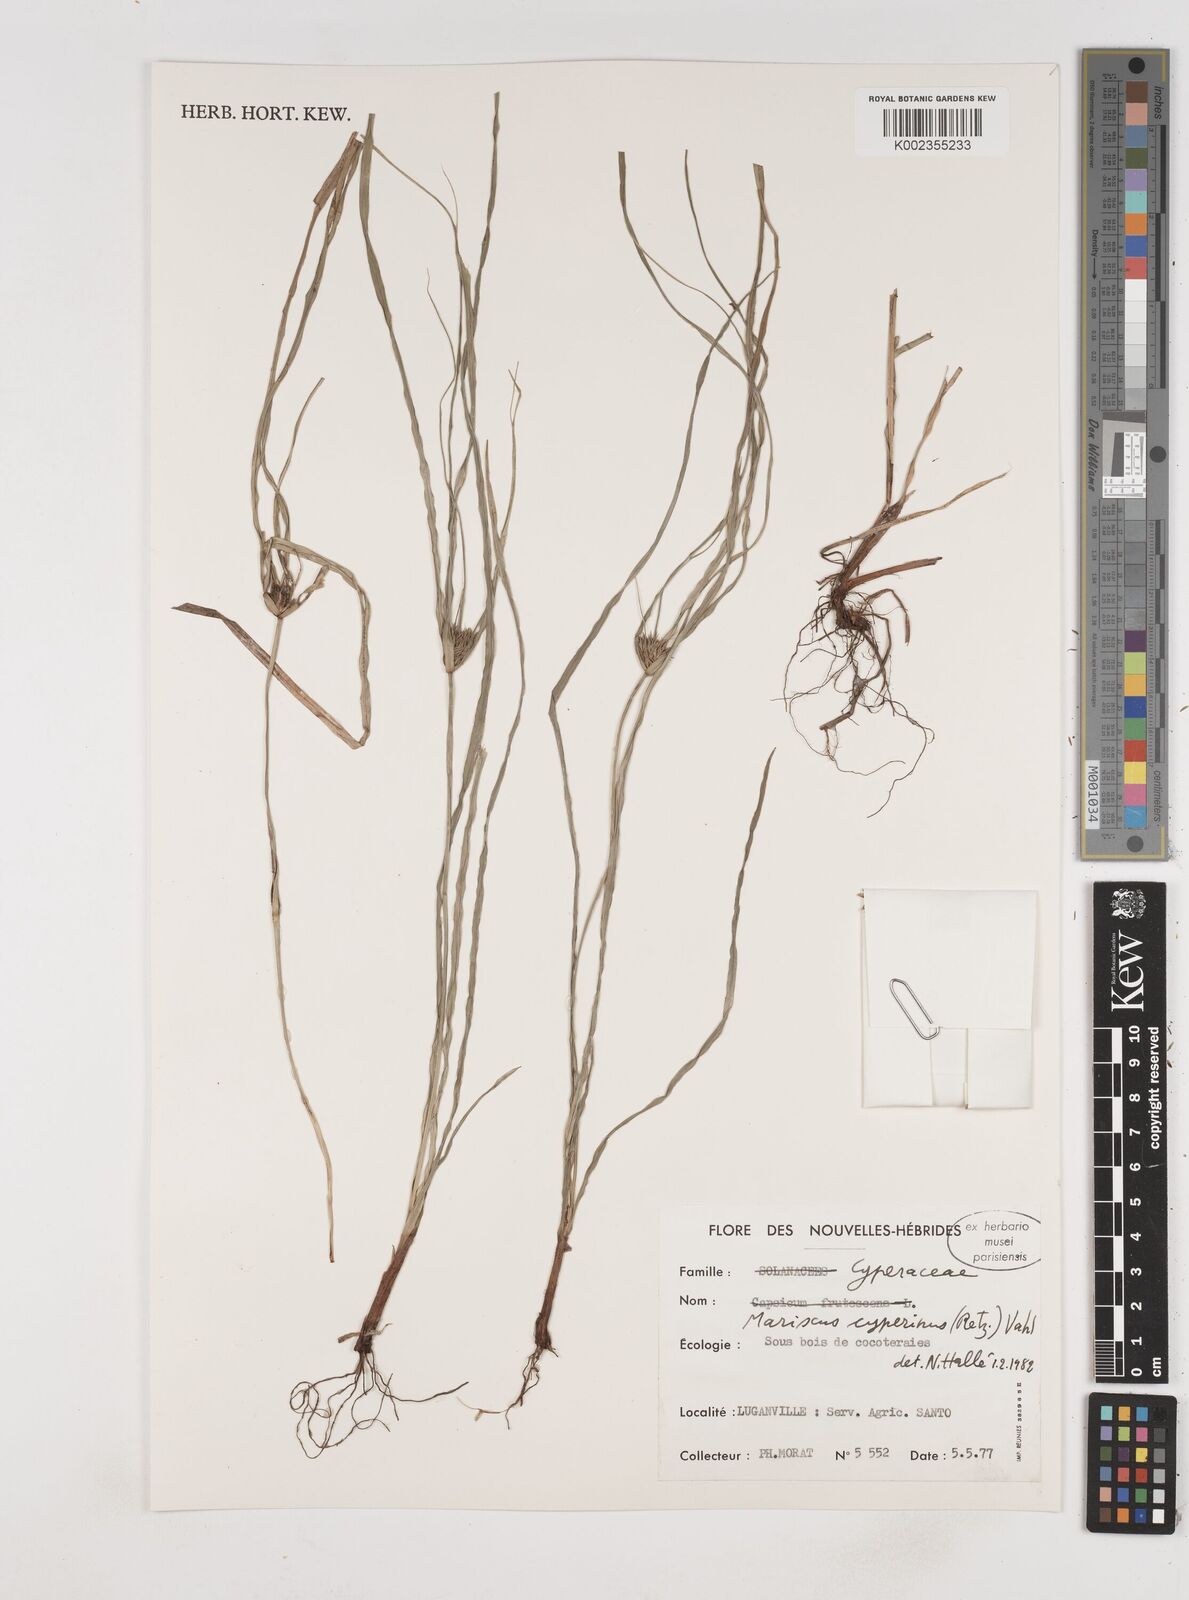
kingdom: Plantae
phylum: Tracheophyta
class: Liliopsida
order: Poales
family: Cyperaceae
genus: Cyperus
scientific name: Cyperus cyperinus
